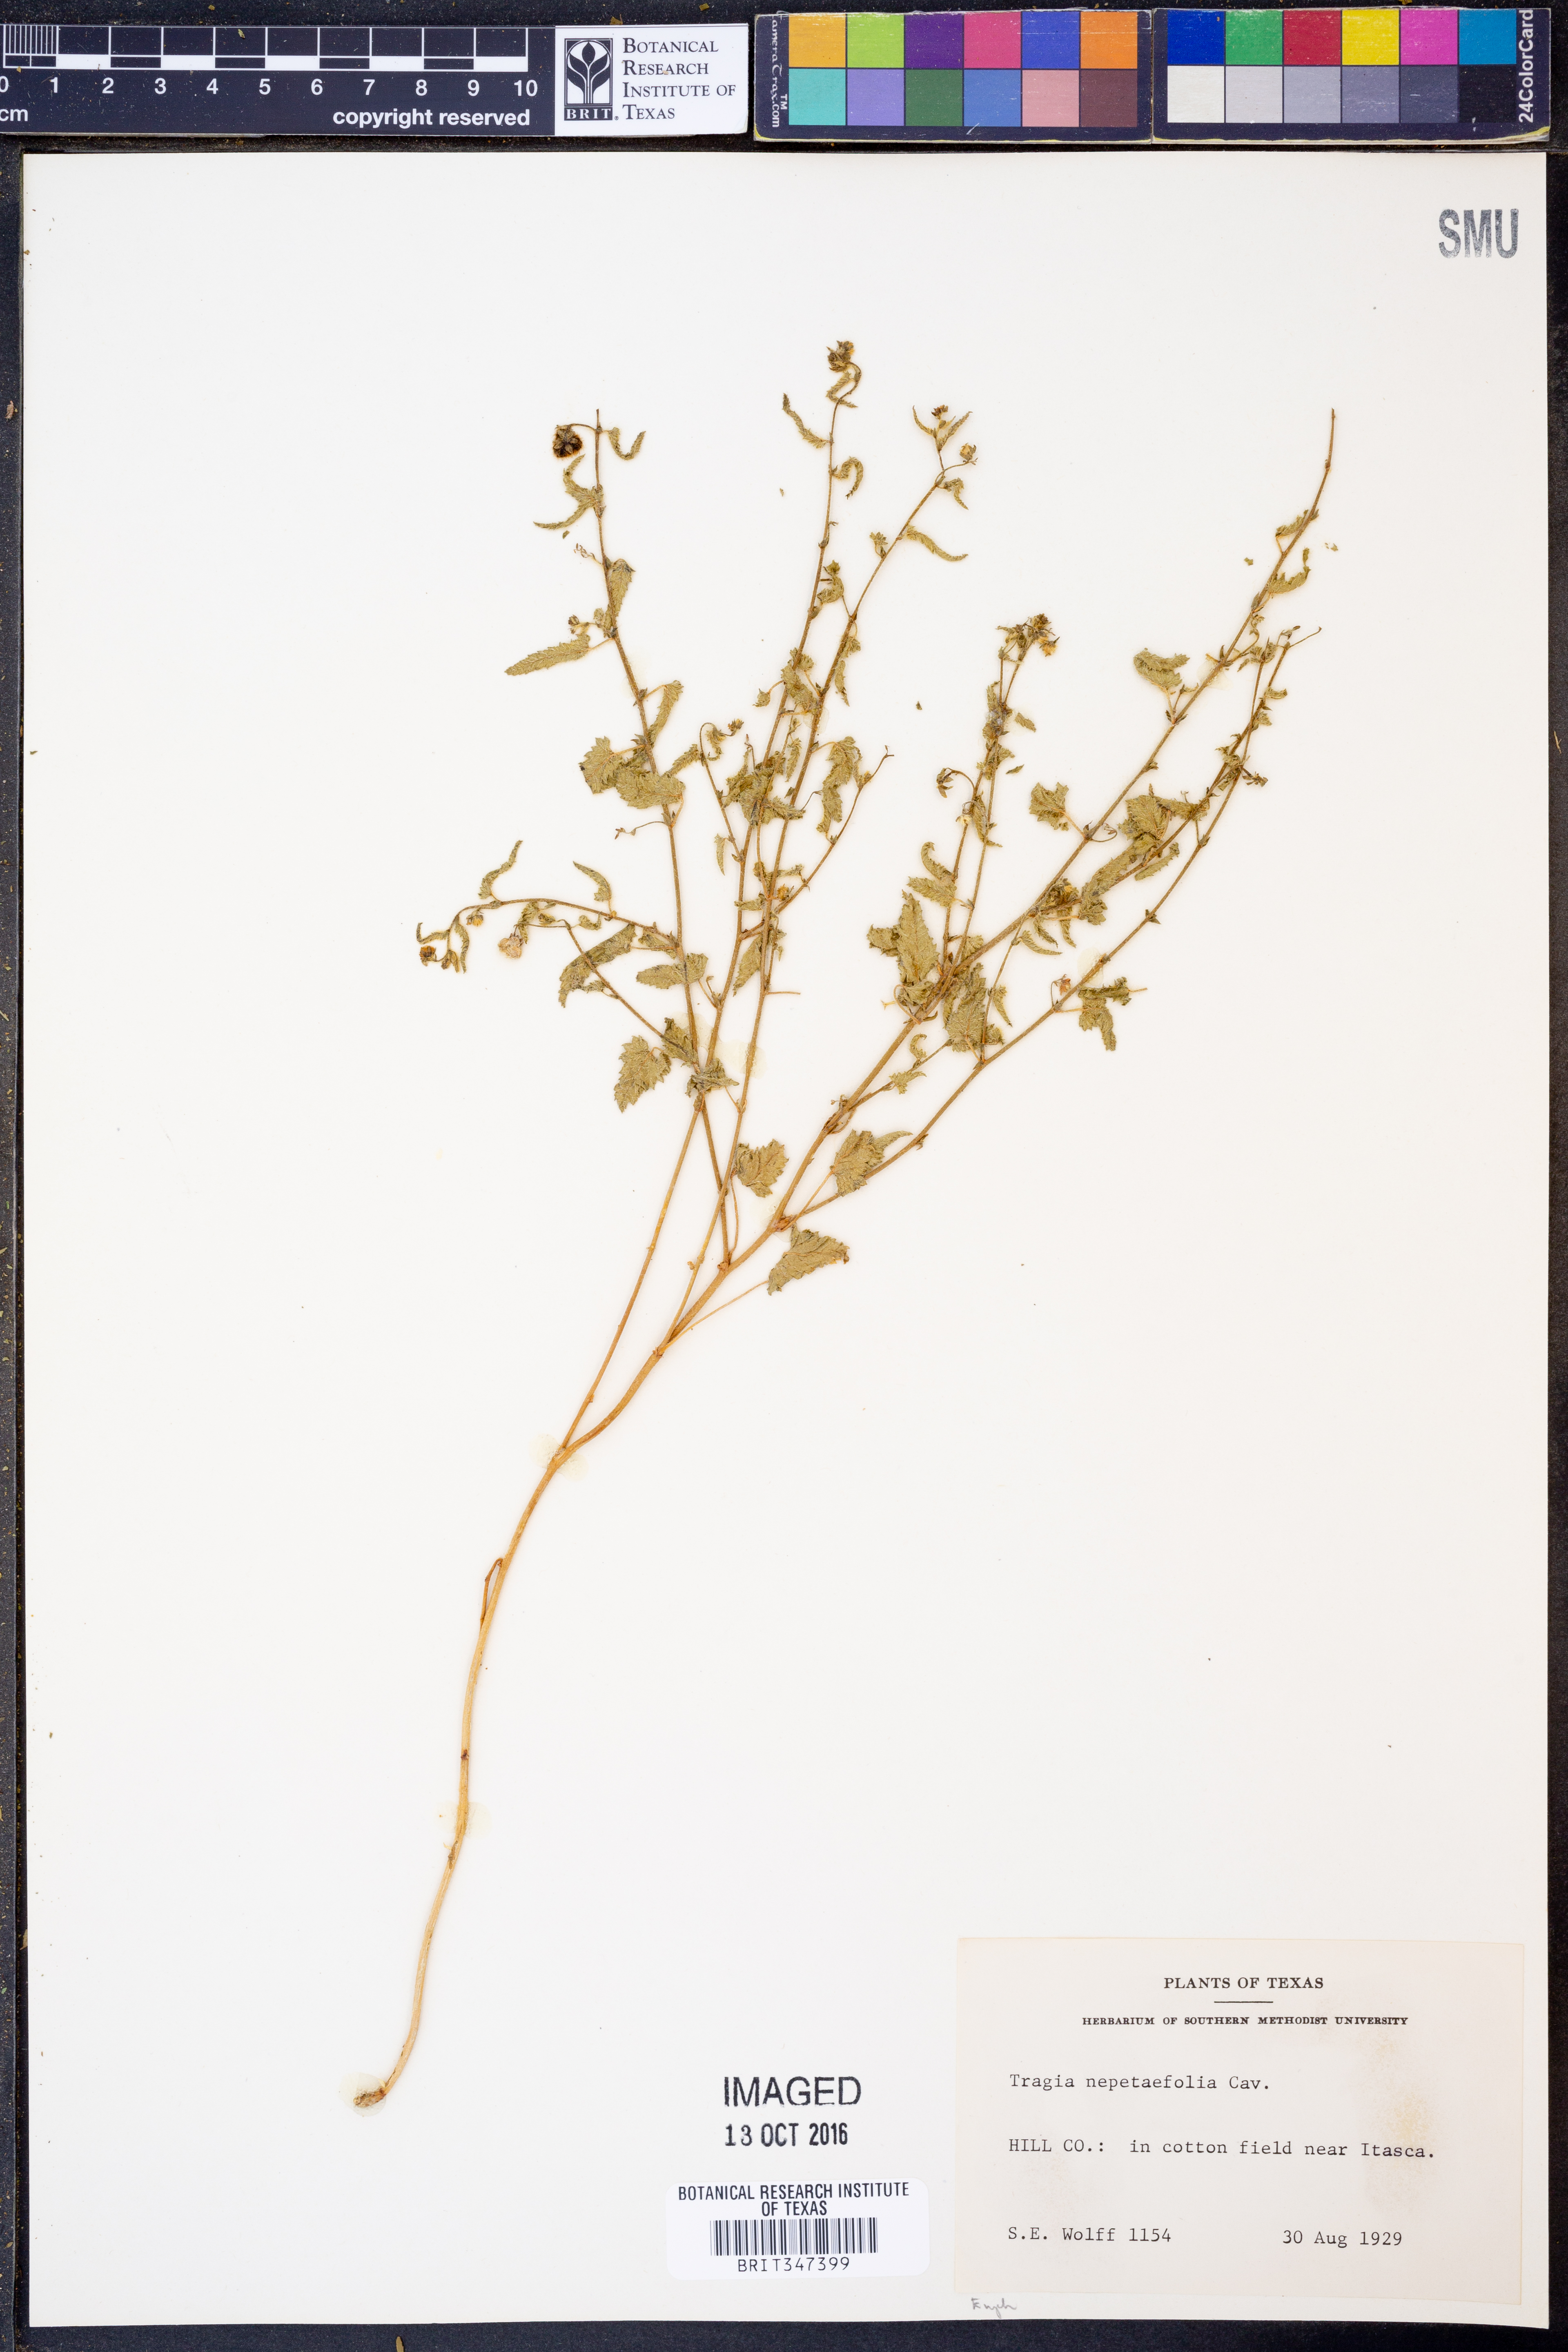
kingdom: Plantae
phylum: Tracheophyta
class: Magnoliopsida
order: Malpighiales
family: Euphorbiaceae
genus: Tragia
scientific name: Tragia bahiensis
